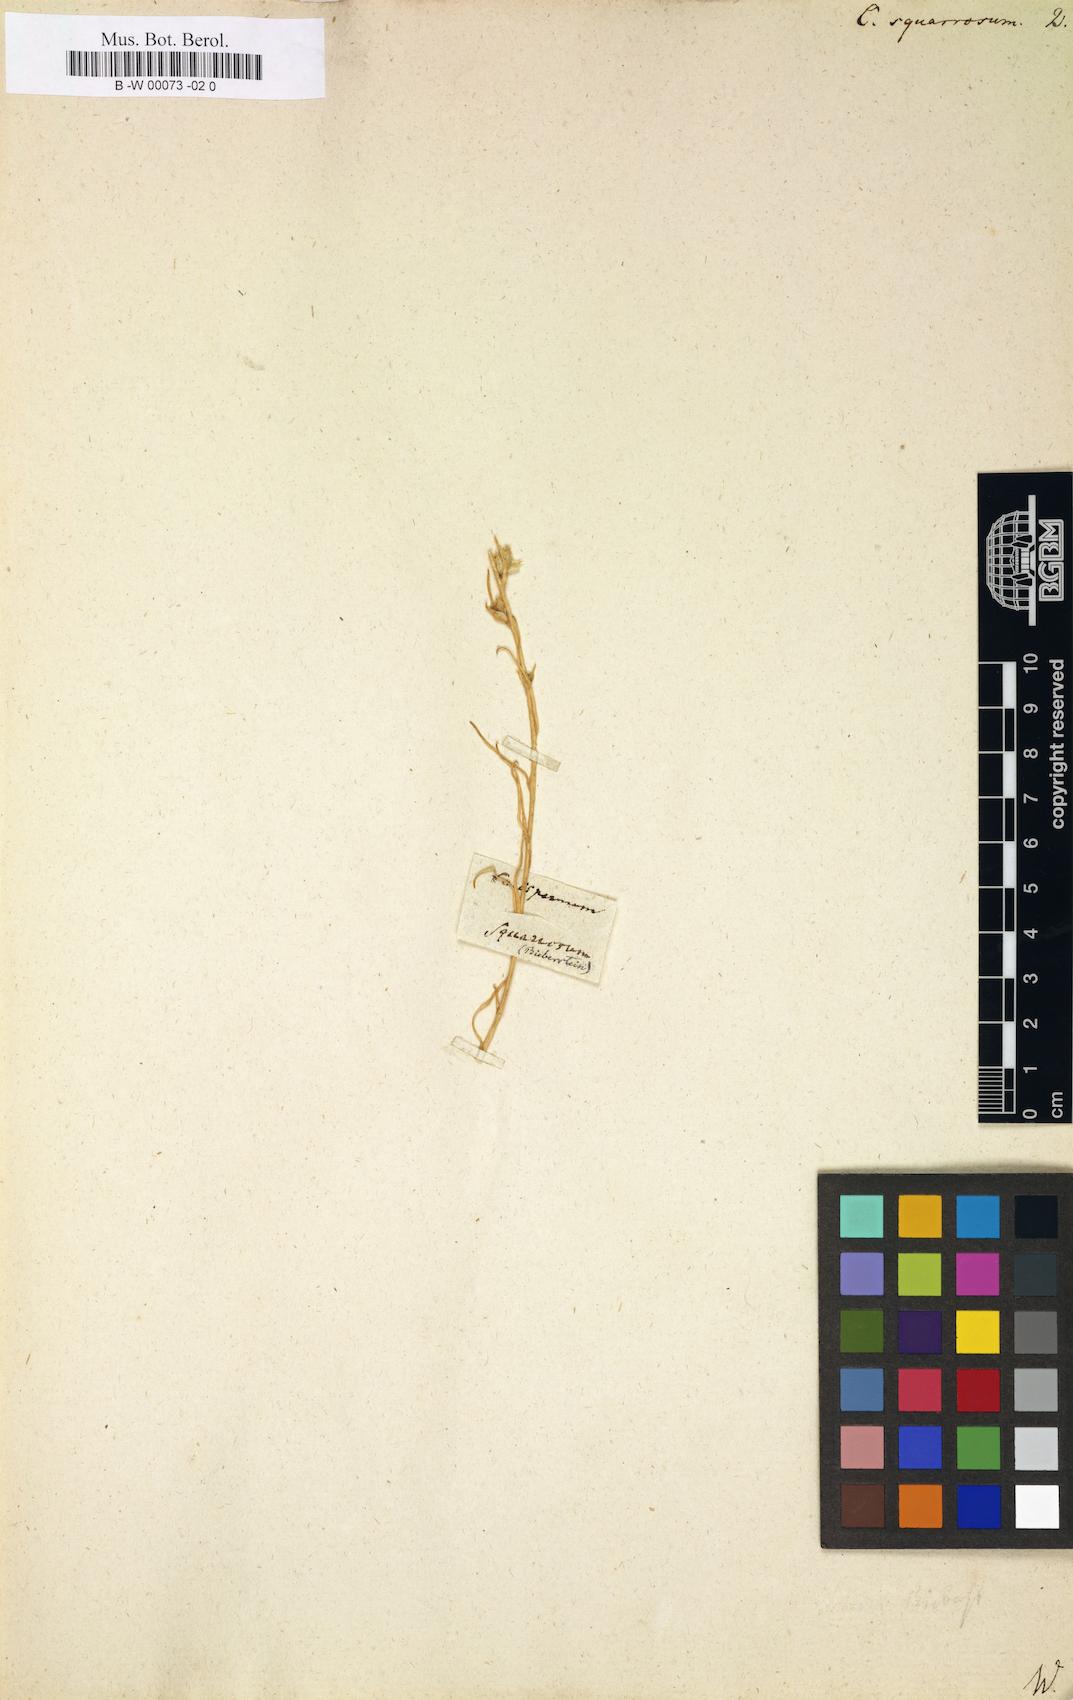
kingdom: Plantae
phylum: Tracheophyta
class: Magnoliopsida
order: Caryophyllales
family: Amaranthaceae
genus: Corispermum
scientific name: Corispermum squarrosum
